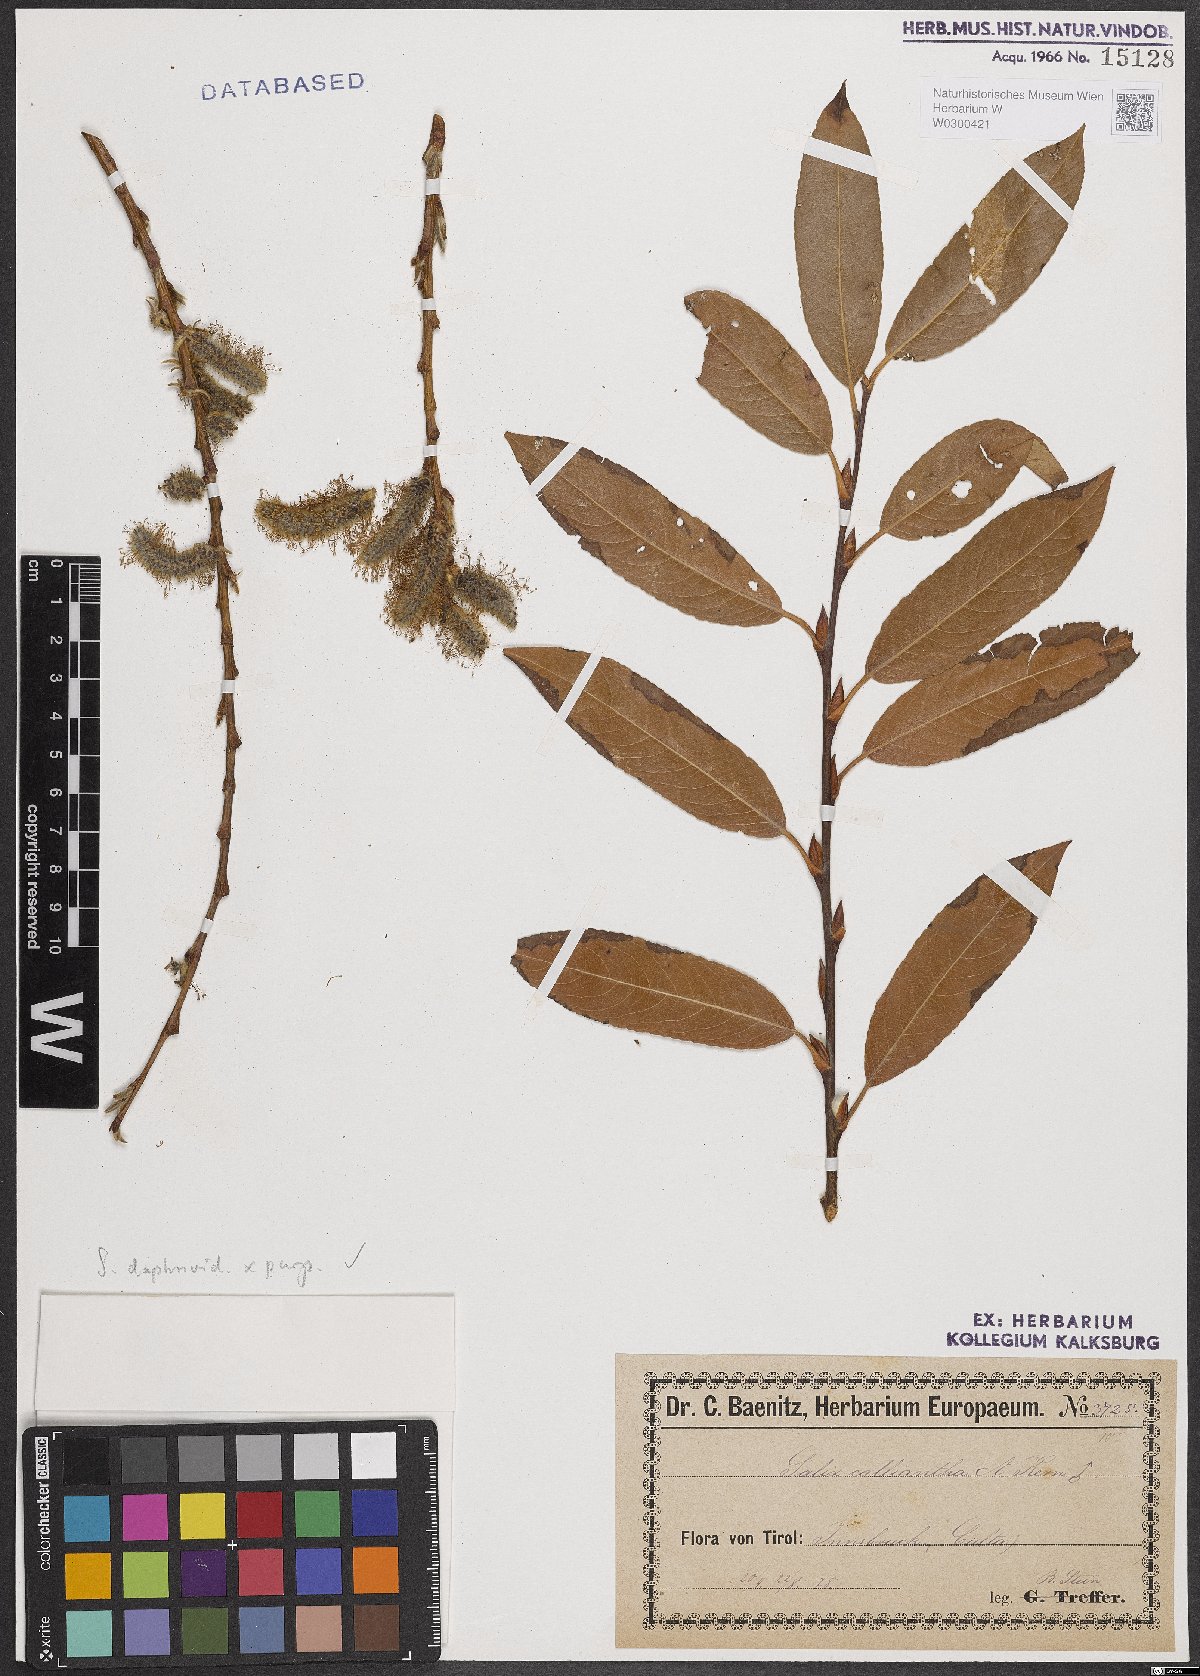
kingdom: Plantae
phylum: Tracheophyta
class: Magnoliopsida
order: Malpighiales
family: Salicaceae
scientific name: Salicaceae
